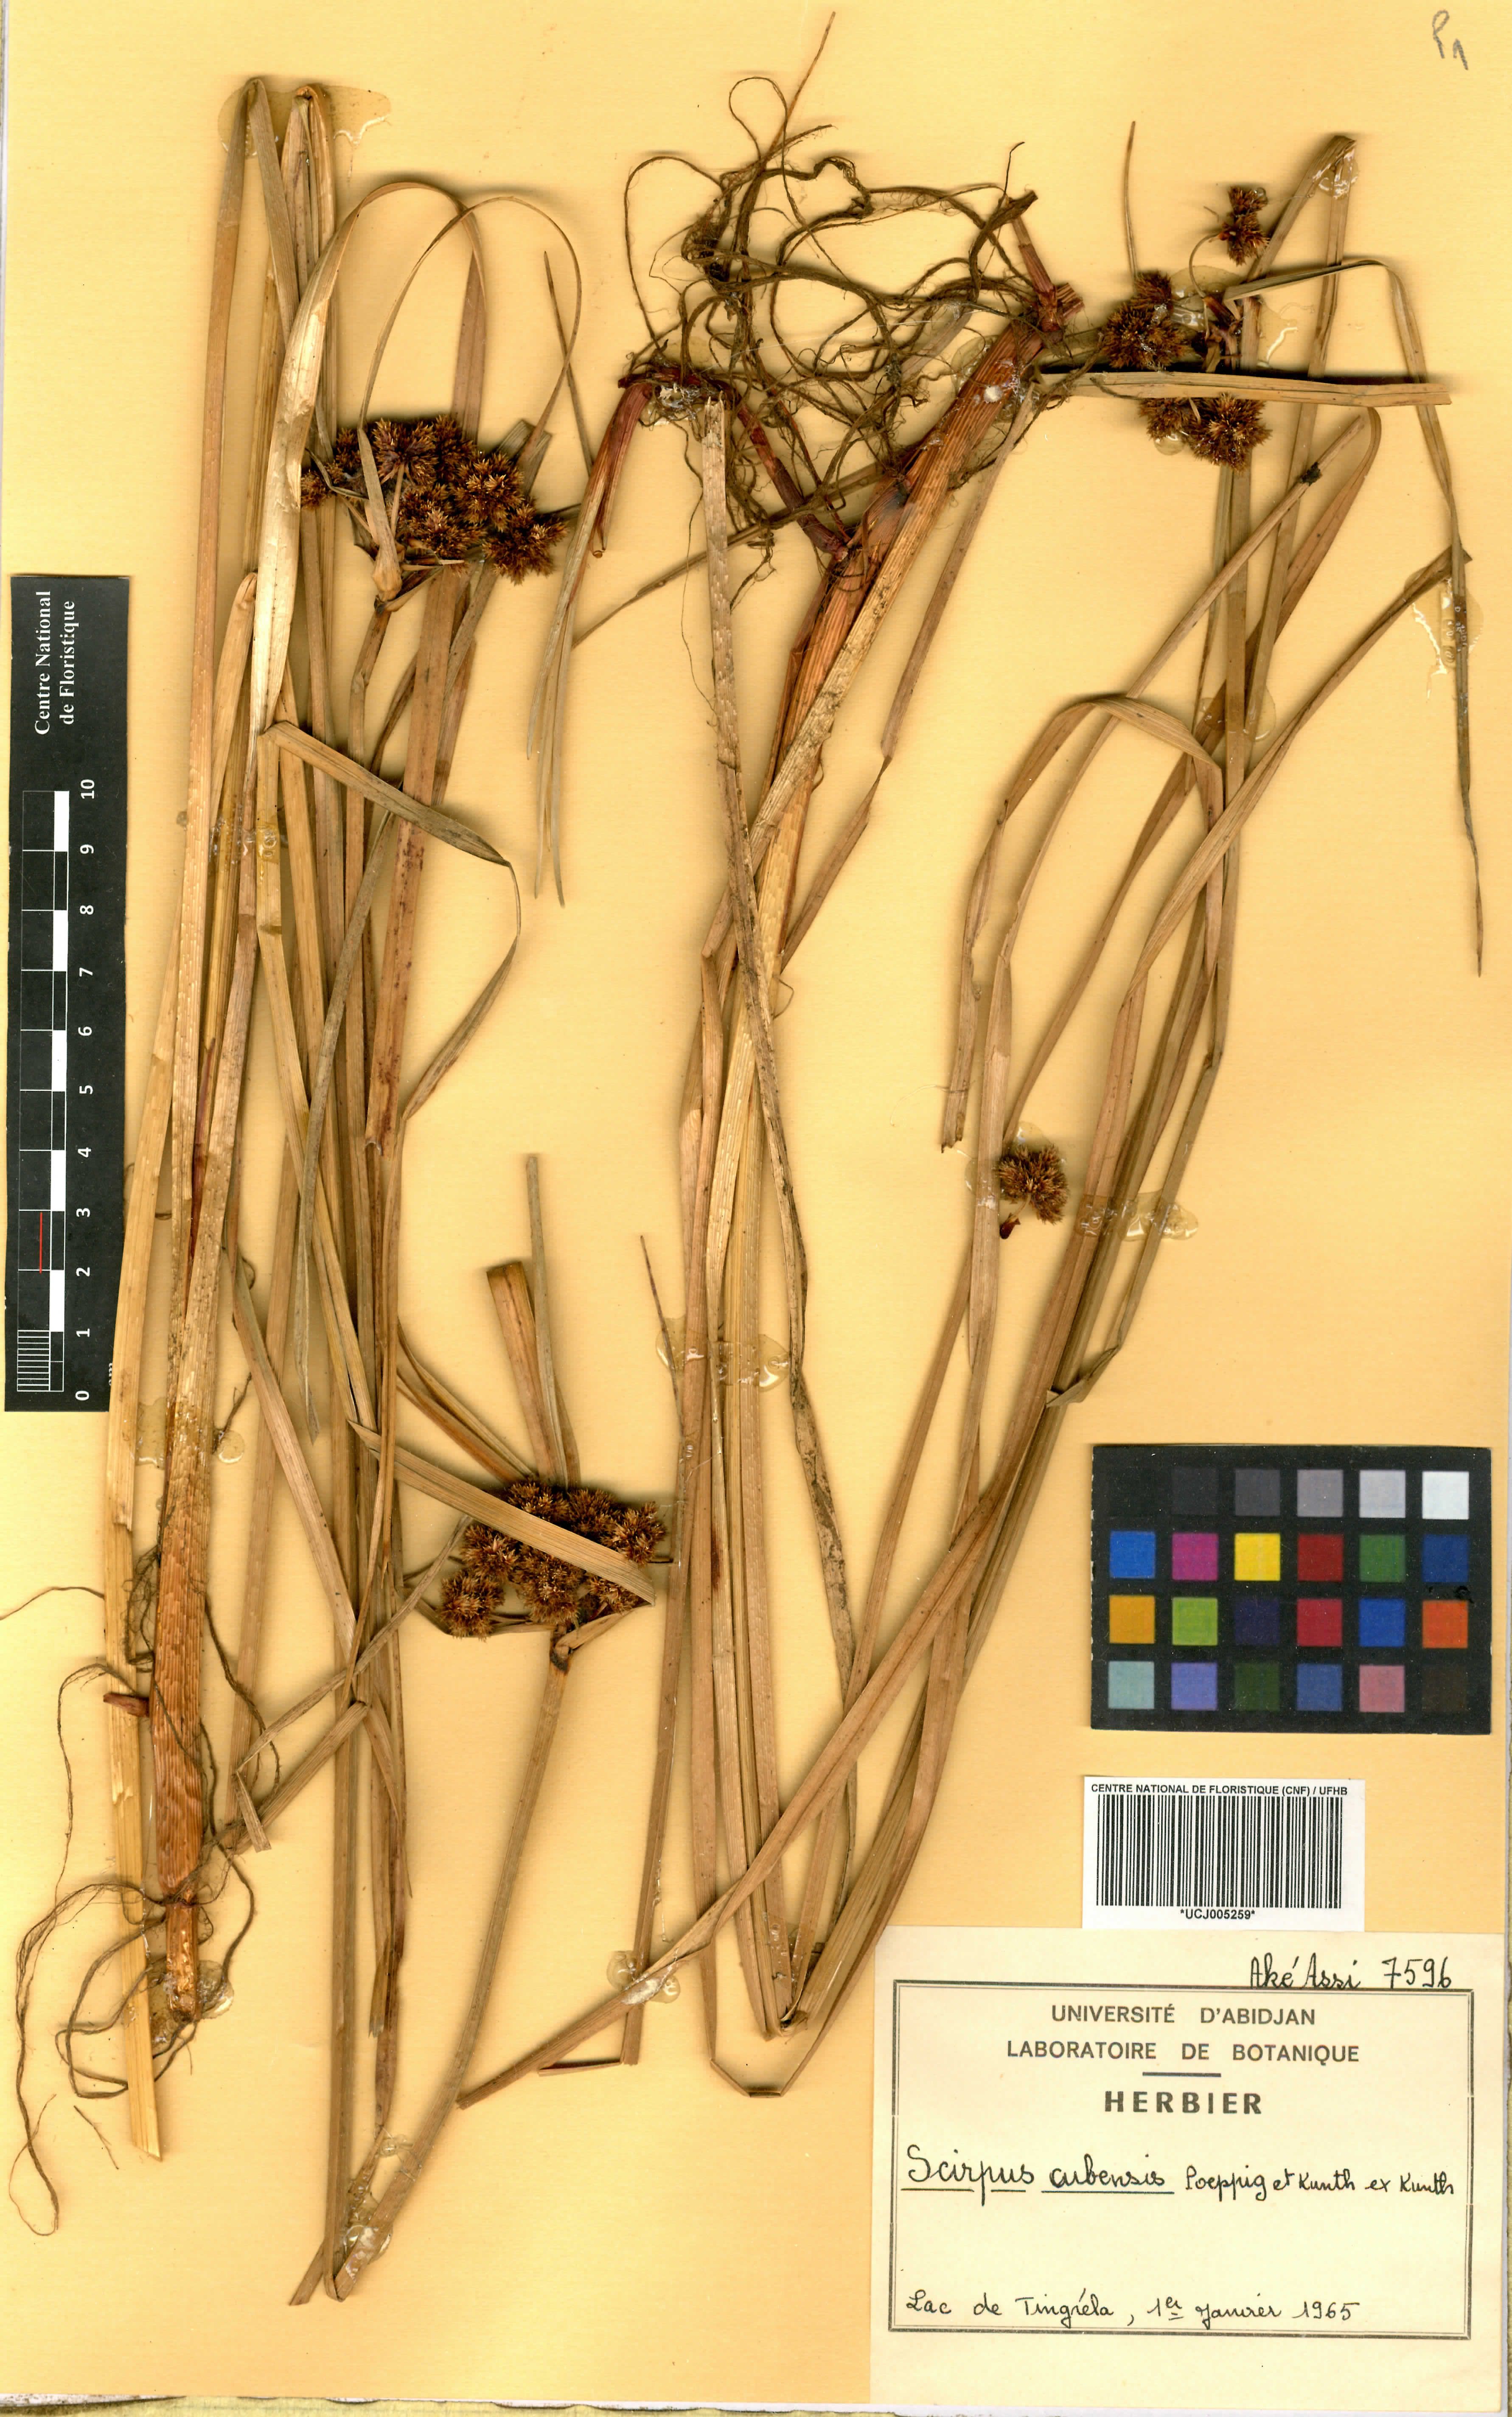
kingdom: Plantae
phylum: Tracheophyta
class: Liliopsida
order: Poales
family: Cyperaceae
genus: Cyperus
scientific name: Cyperus blepharoleptos
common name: Cuban bulrush
